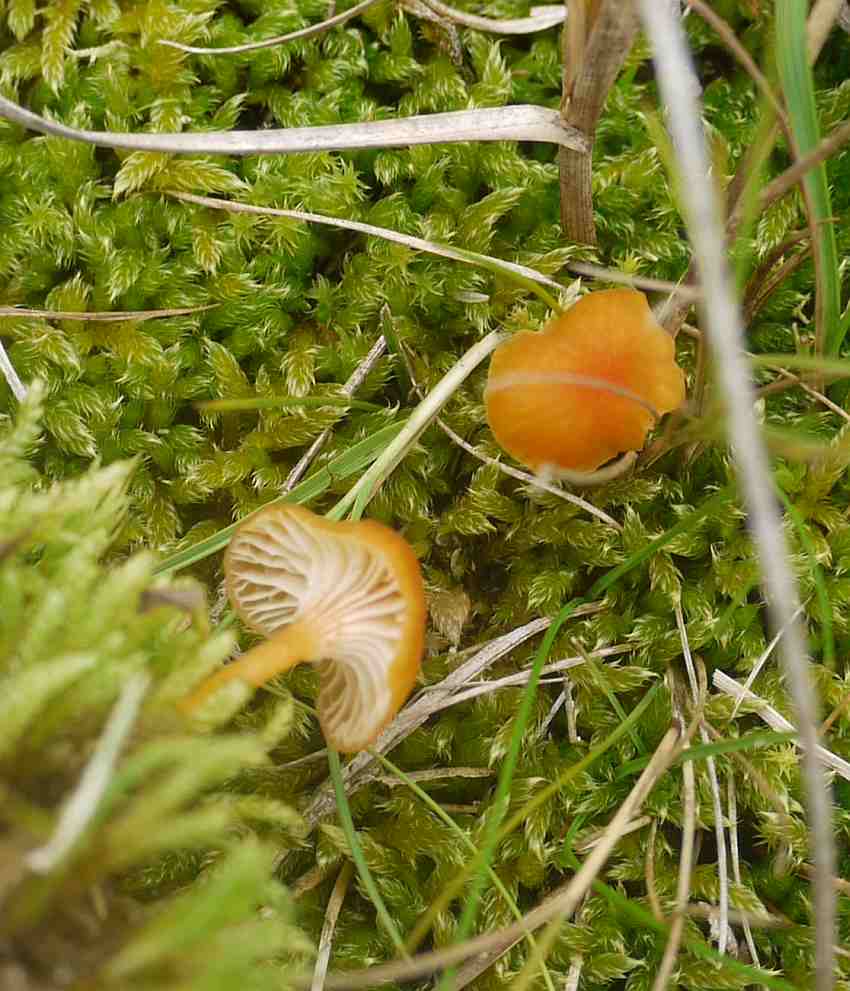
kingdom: Fungi
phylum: Basidiomycota
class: Agaricomycetes
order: Hymenochaetales
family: Rickenellaceae
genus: Rickenella
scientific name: Rickenella fibula
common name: orange mosnavlehat
